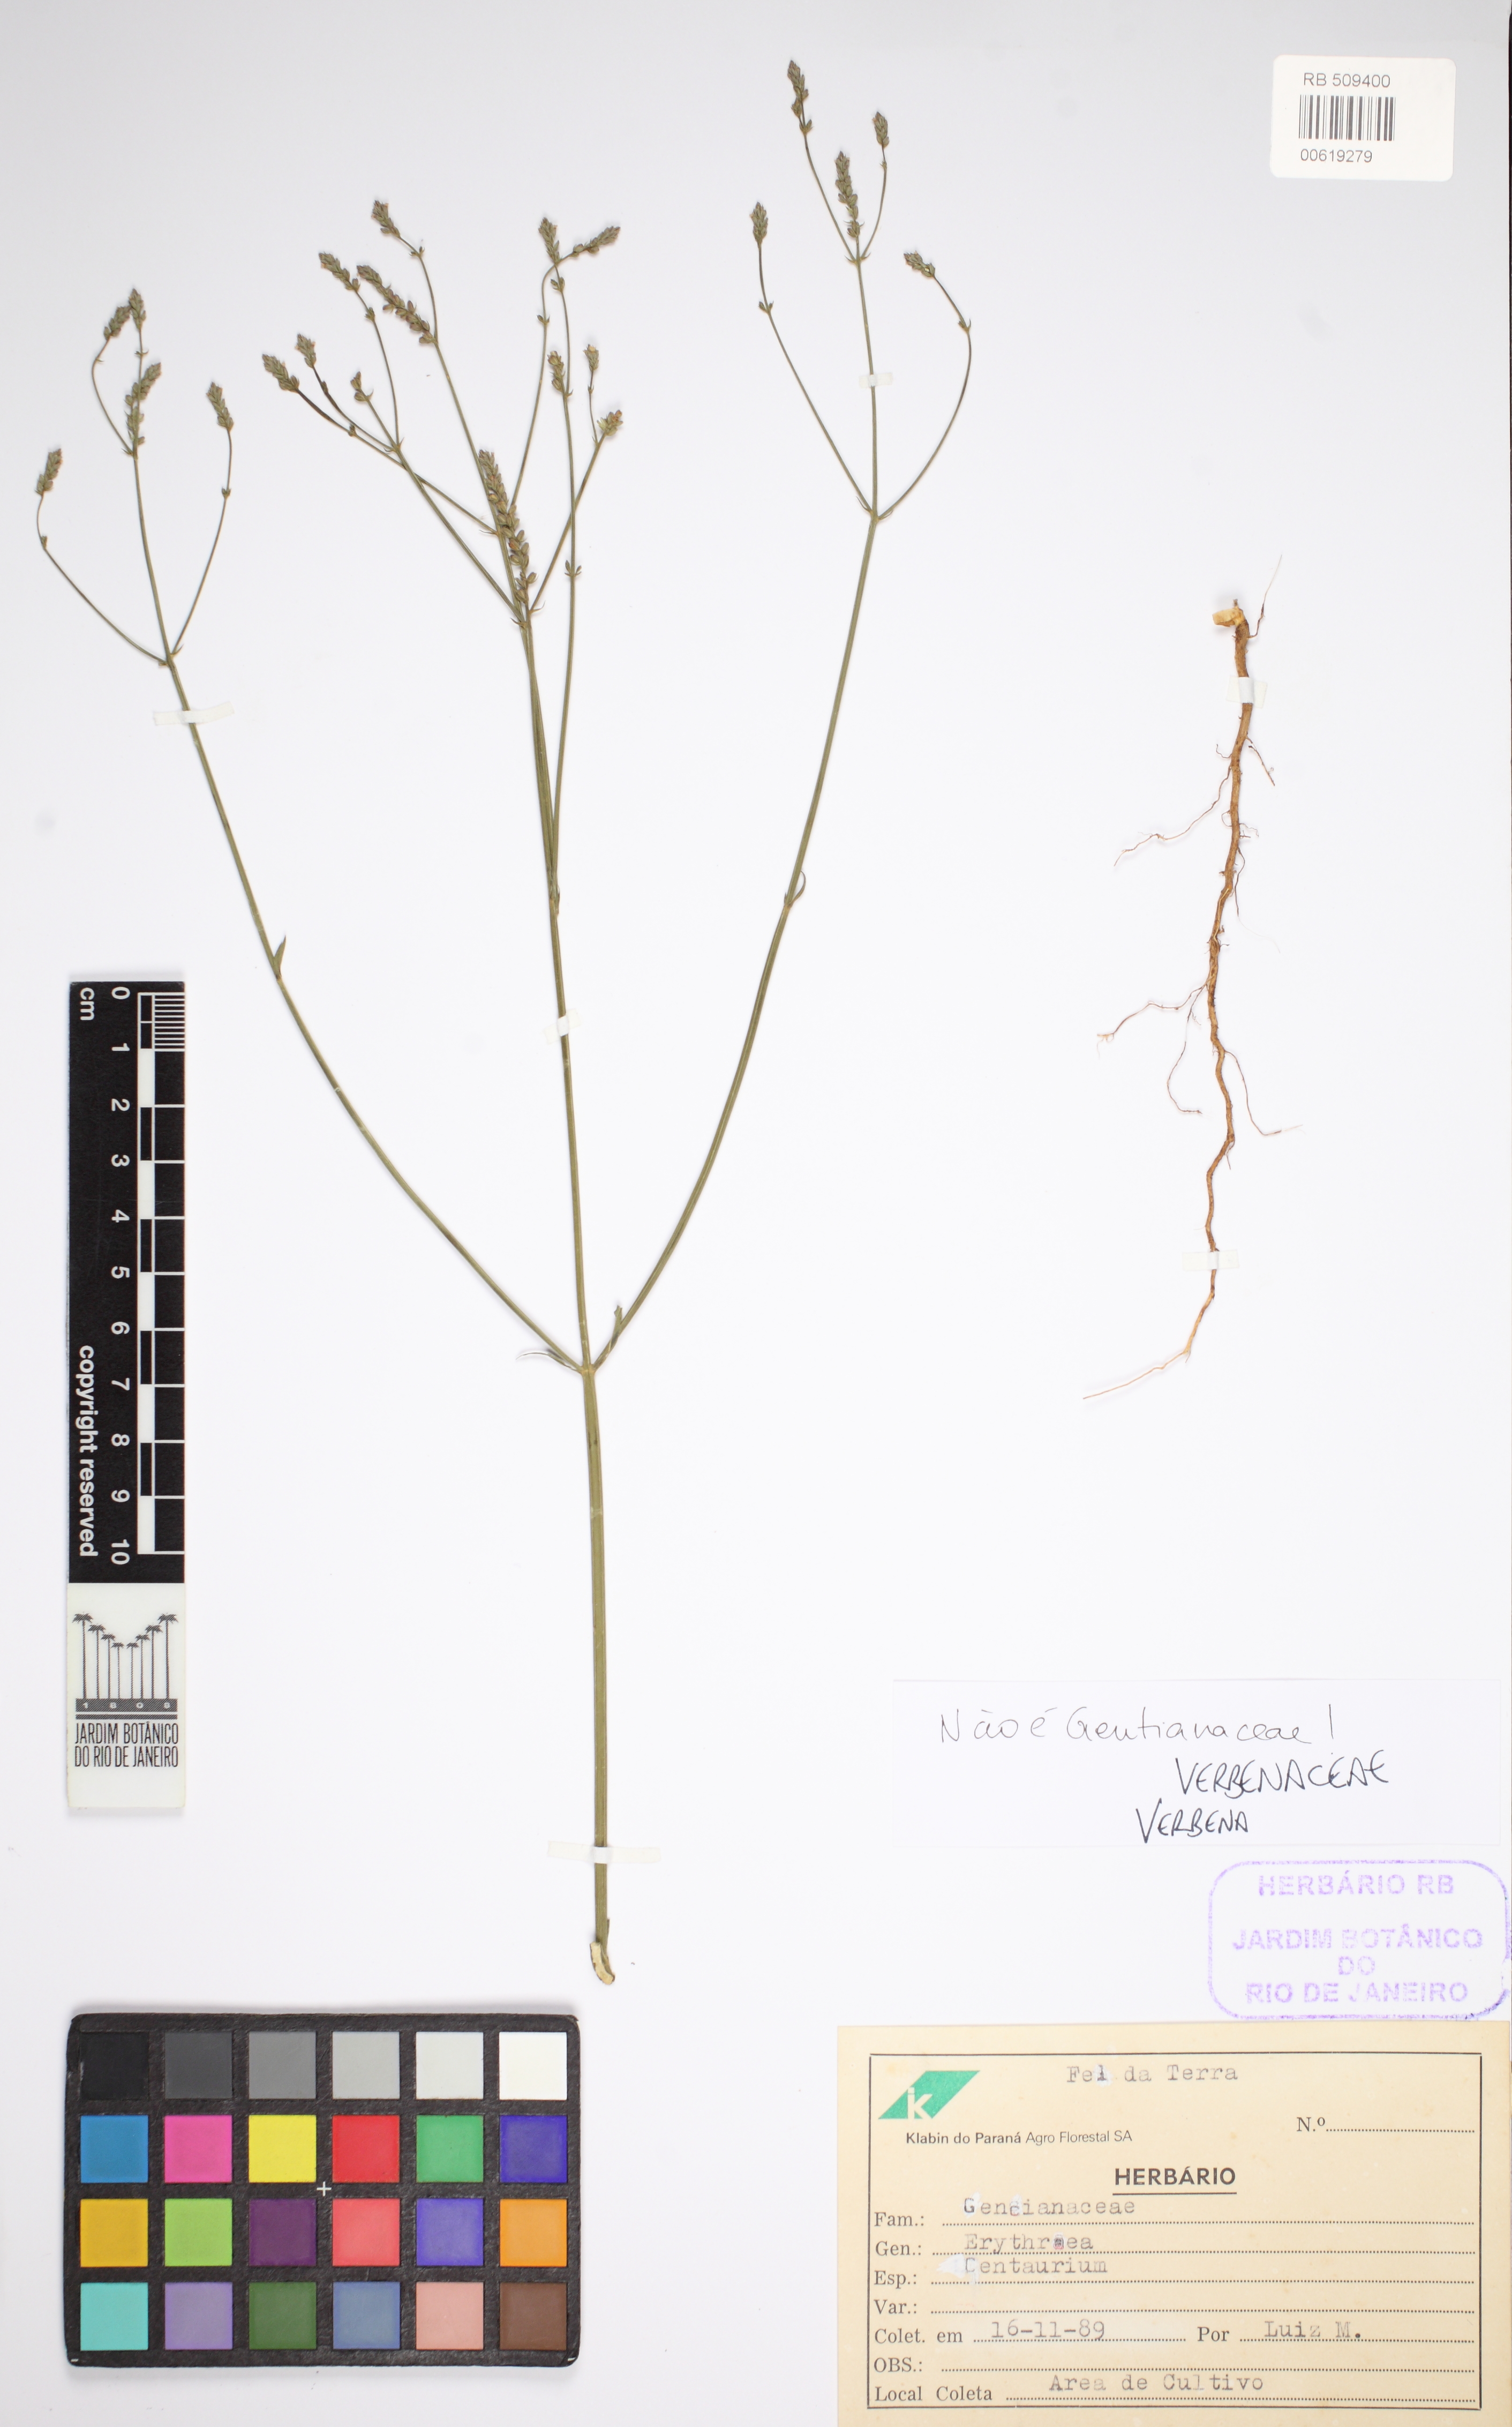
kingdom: Plantae
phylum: Tracheophyta
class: Magnoliopsida
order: Lamiales
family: Verbenaceae
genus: Verbena
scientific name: Verbena
